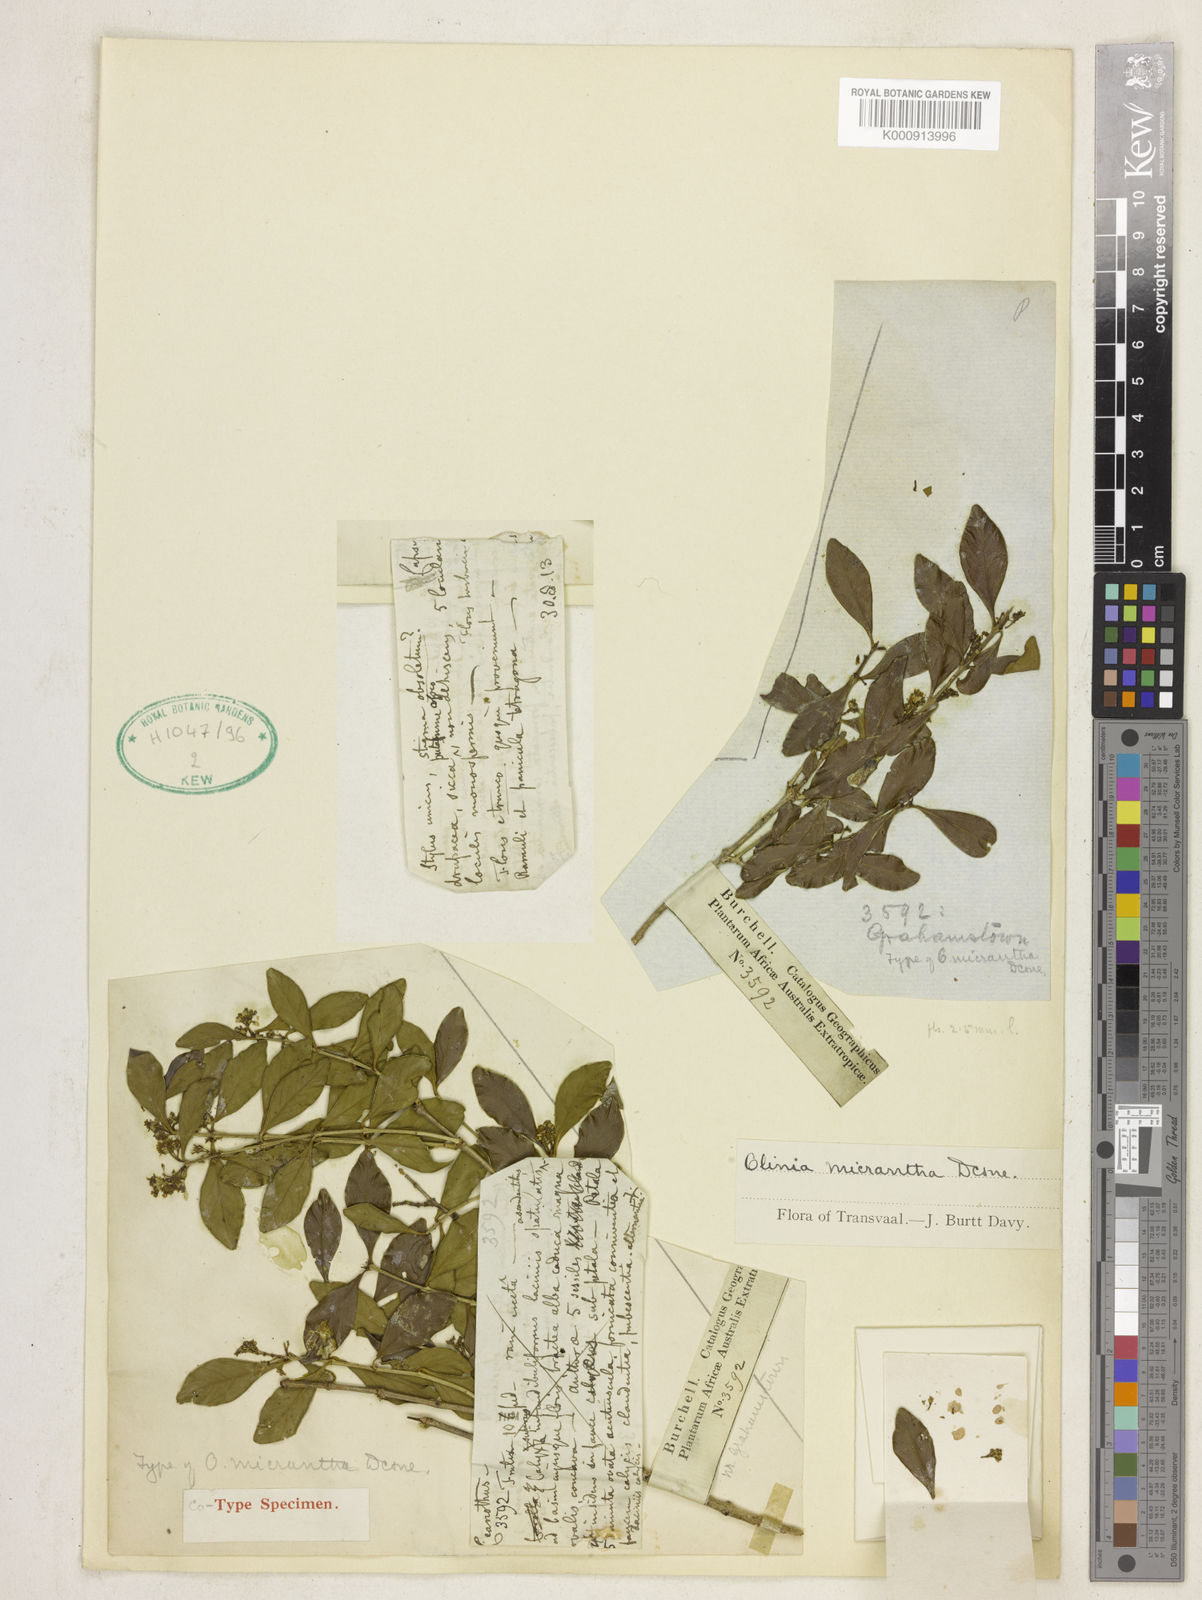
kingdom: Plantae
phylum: Tracheophyta
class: Magnoliopsida
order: Myrtales
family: Penaeaceae
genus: Olinia
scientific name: Olinia micrantha
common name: Eastern cape hard-pear
